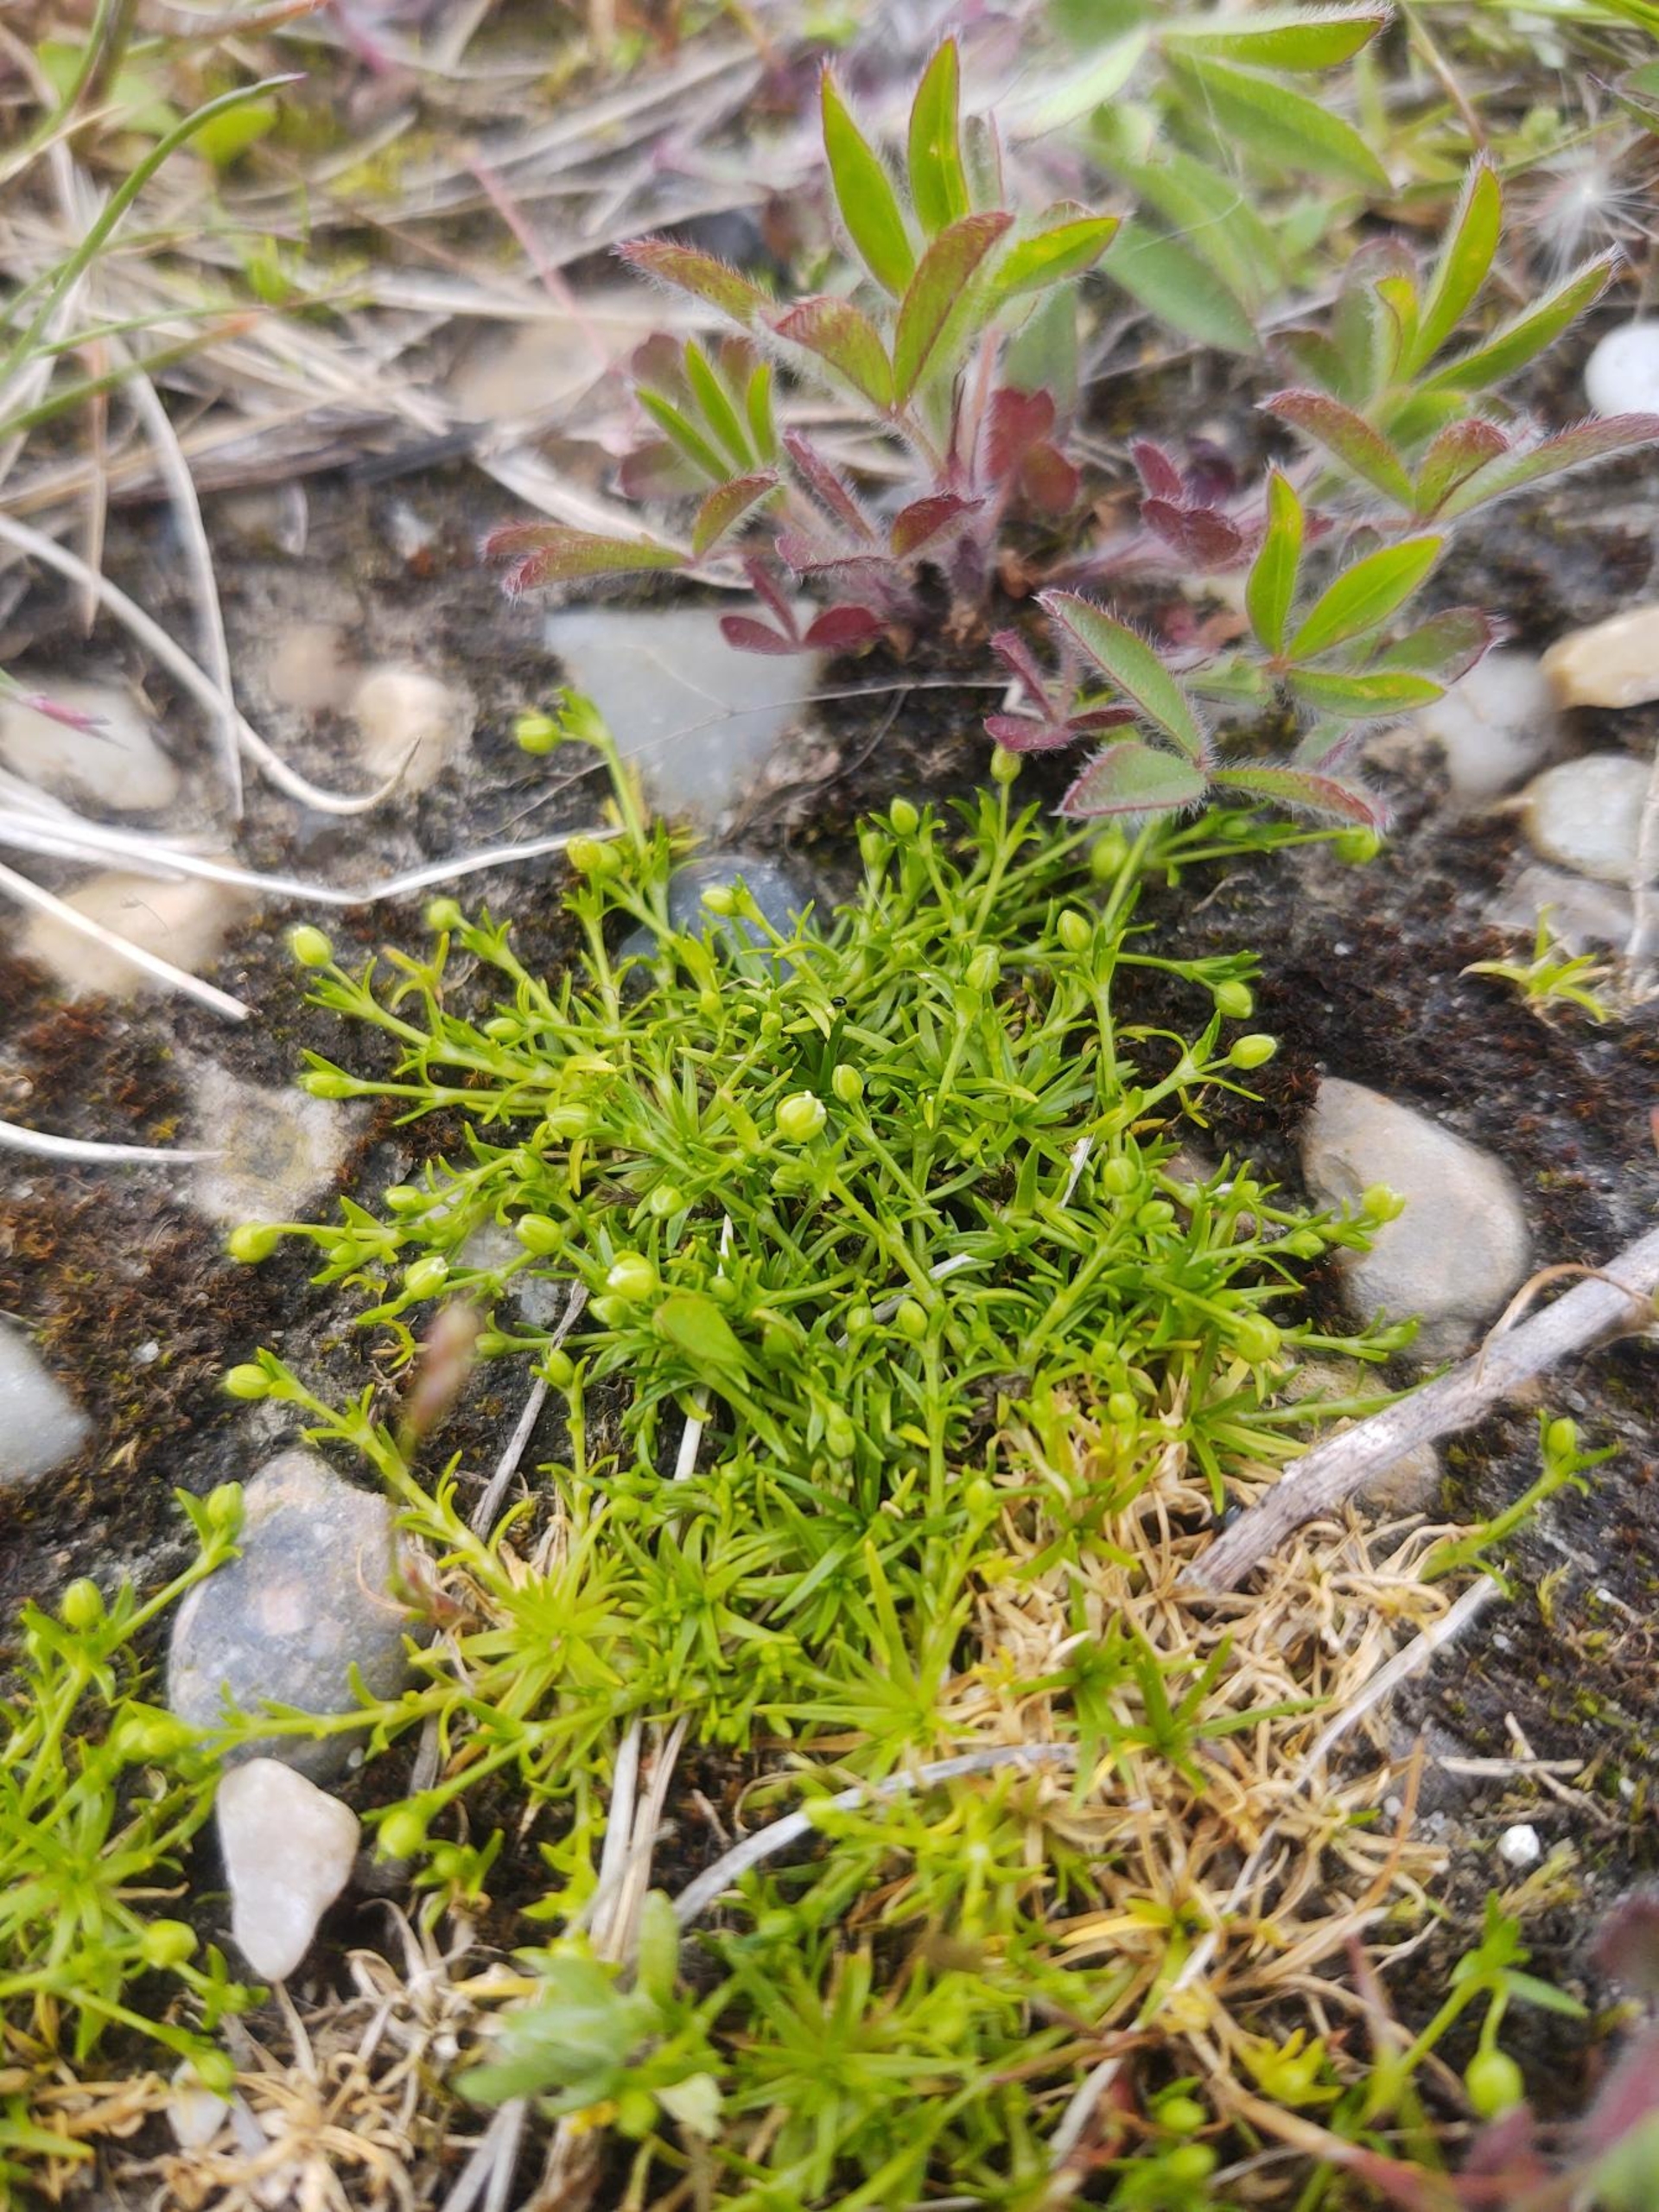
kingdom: Plantae
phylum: Tracheophyta
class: Magnoliopsida
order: Caryophyllales
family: Caryophyllaceae
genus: Sagina
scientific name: Sagina procumbens
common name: Almindelig firling
